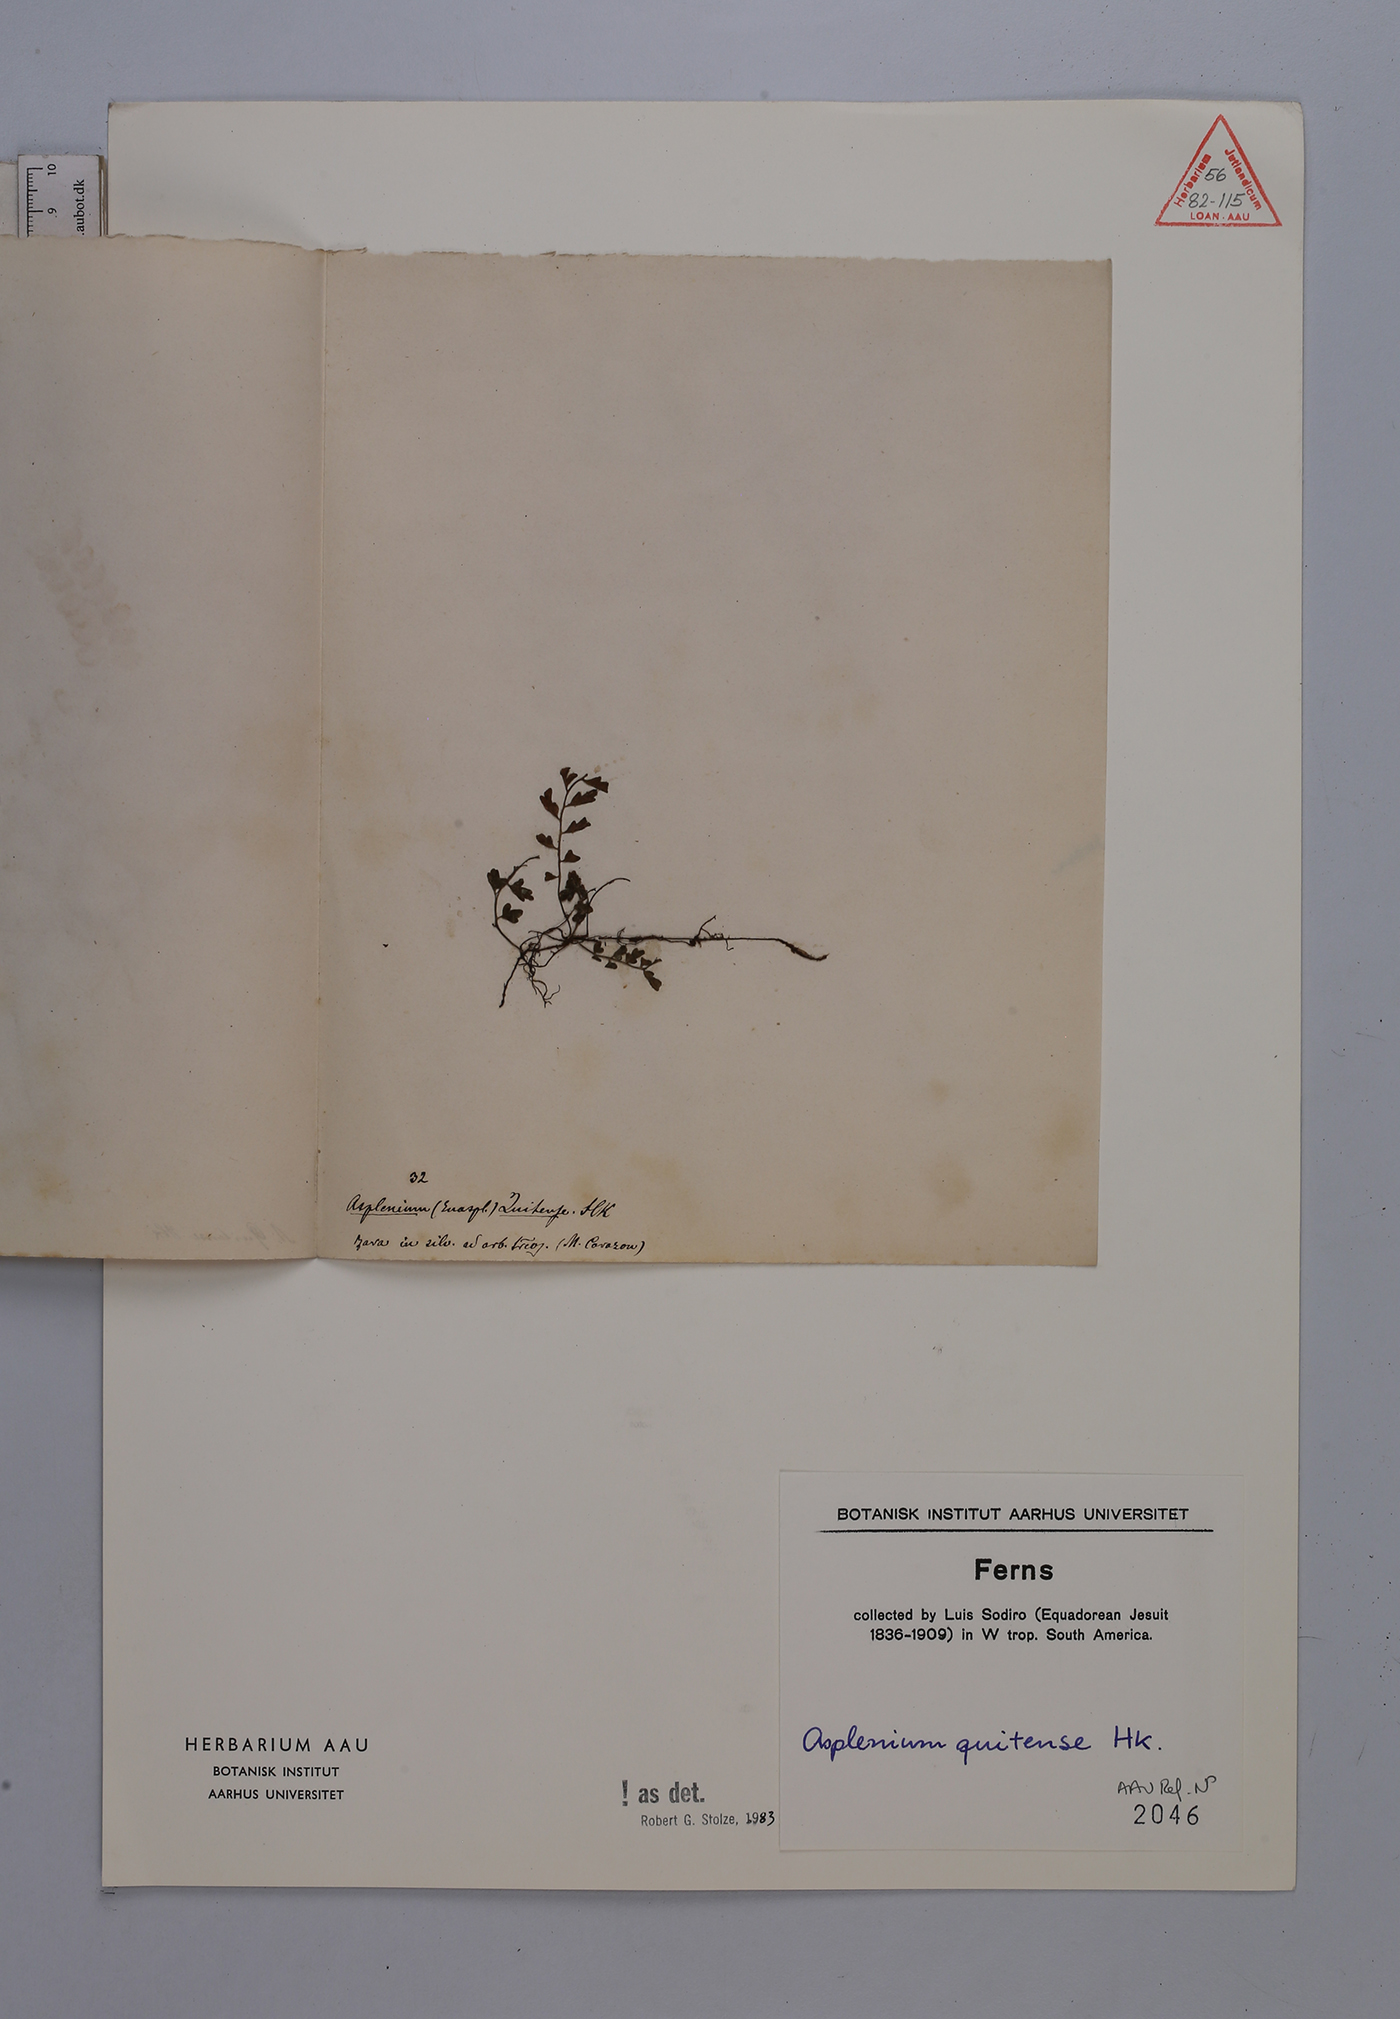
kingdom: Plantae
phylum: Tracheophyta
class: Polypodiopsida
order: Polypodiales
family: Aspleniaceae
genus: Asplenium
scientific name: Asplenium quitense
